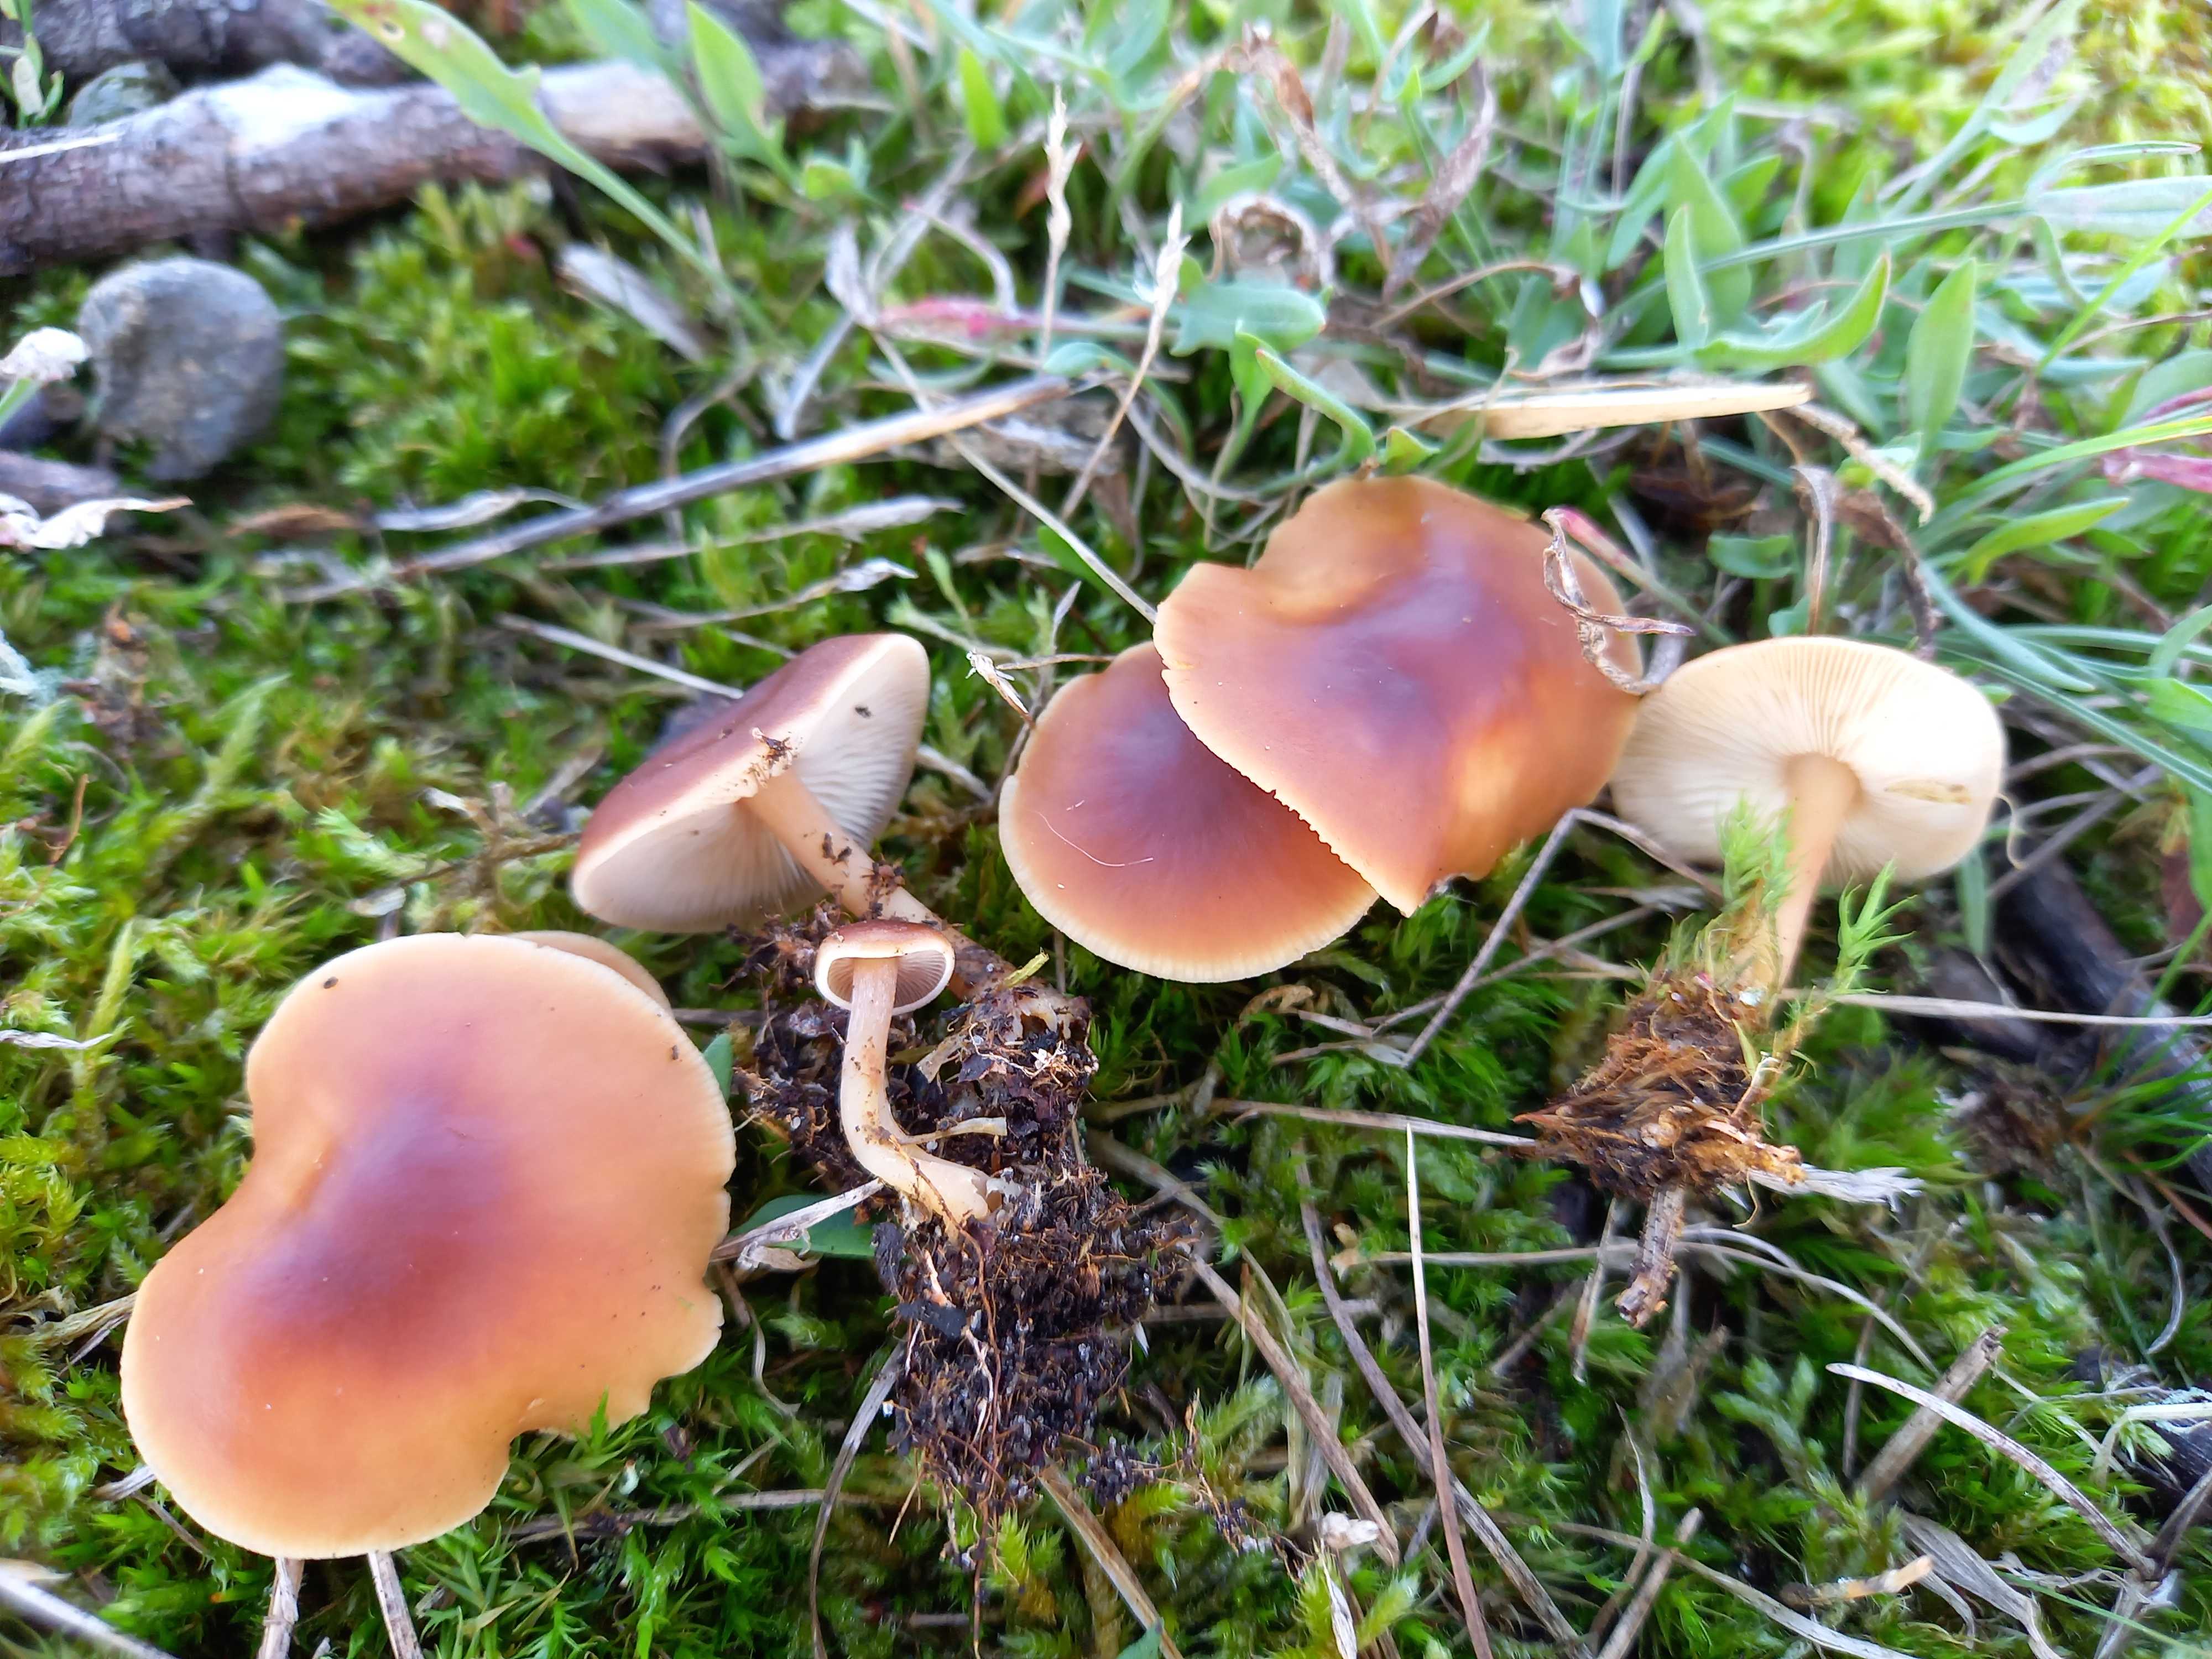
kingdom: Fungi
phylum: Basidiomycota
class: Agaricomycetes
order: Agaricales
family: Omphalotaceae
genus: Gymnopus
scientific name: Gymnopus ocior
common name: mørk fladhat
